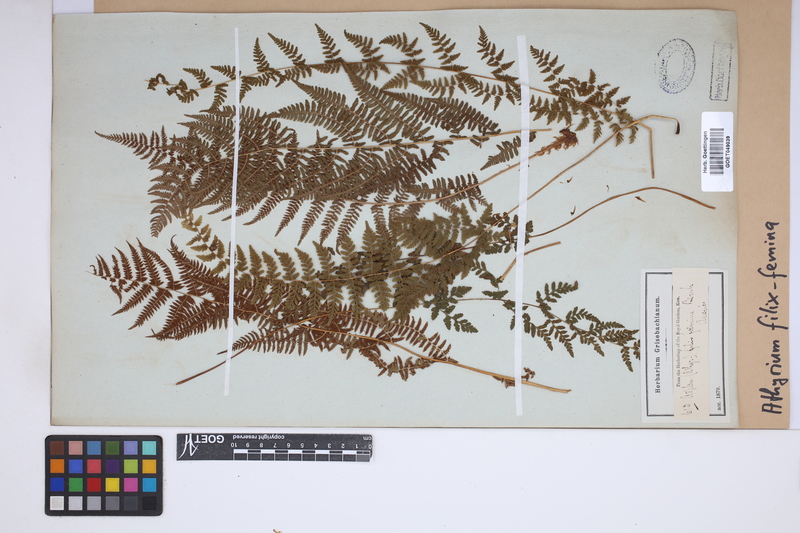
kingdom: Plantae
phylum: Tracheophyta
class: Polypodiopsida
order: Polypodiales
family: Athyriaceae
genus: Athyrium
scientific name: Athyrium filix-femina
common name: Lady fern
